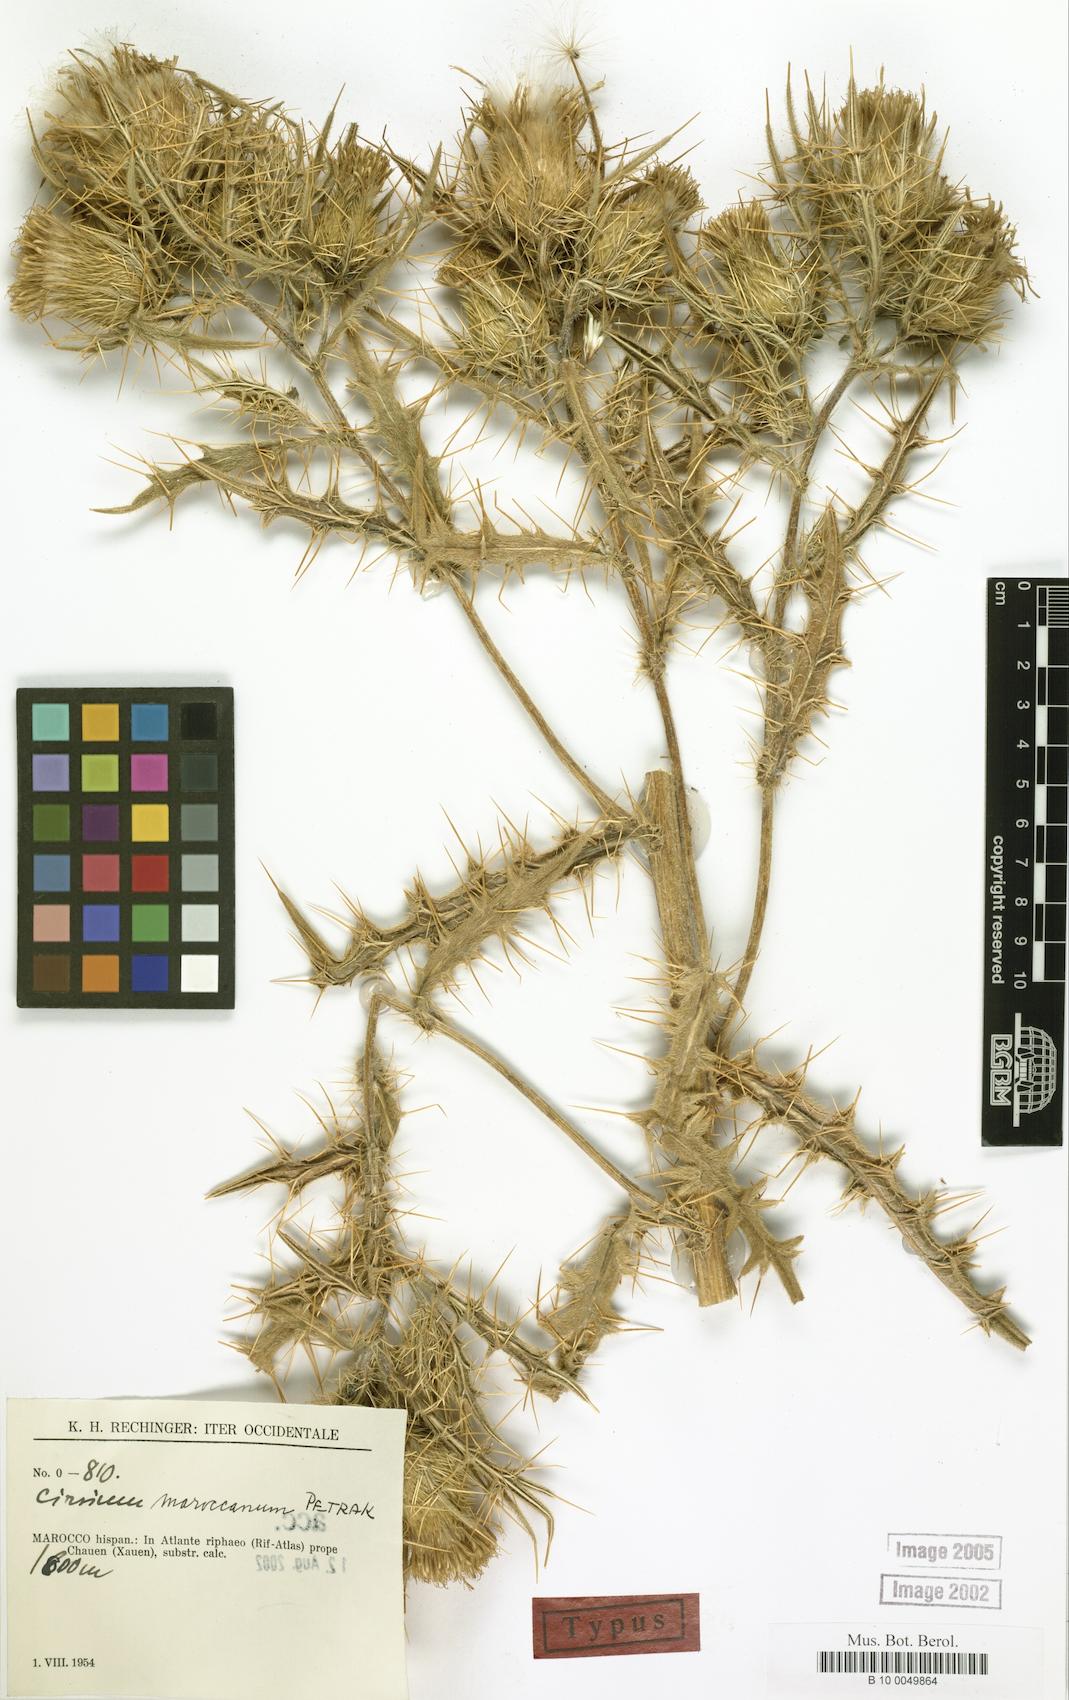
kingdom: Plantae
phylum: Tracheophyta
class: Magnoliopsida
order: Asterales
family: Asteraceae
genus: Lophiolepis
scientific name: Lophiolepis maroccana
